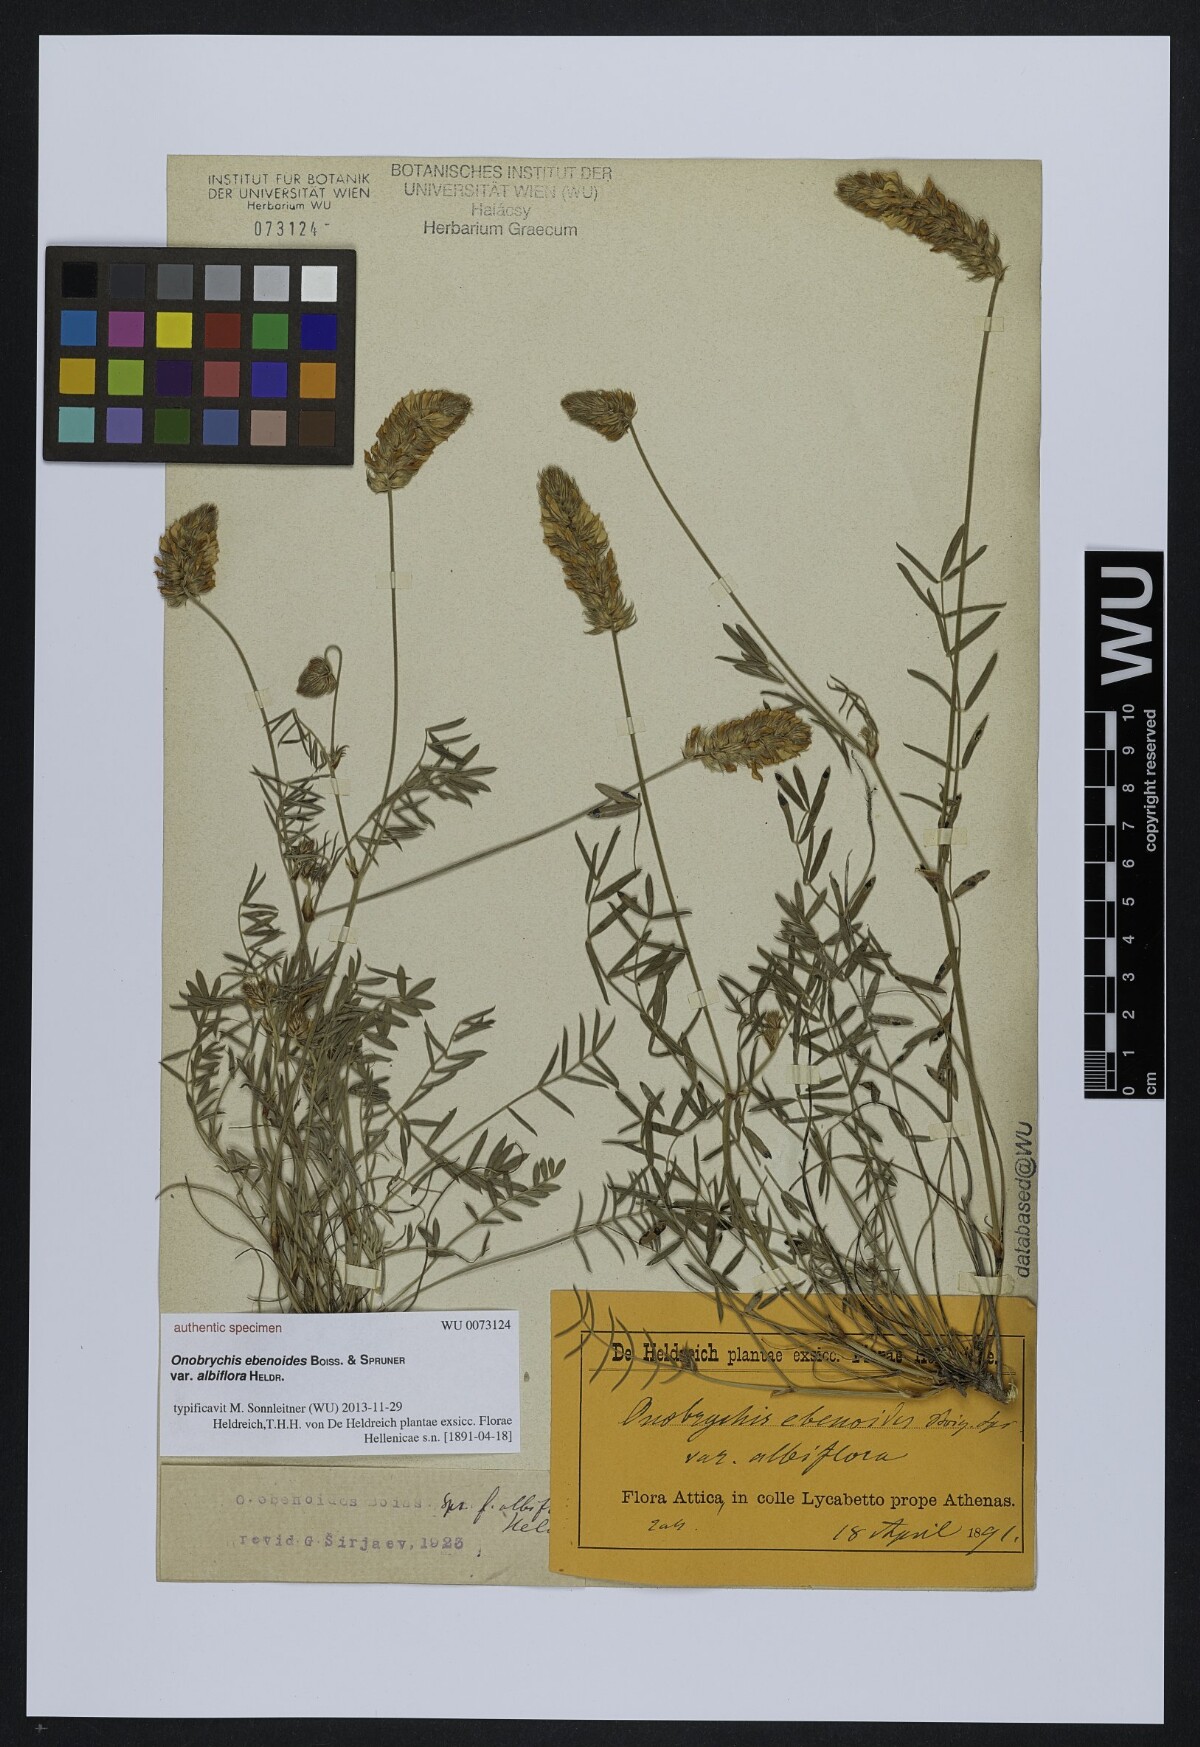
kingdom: Plantae
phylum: Tracheophyta
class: Magnoliopsida
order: Fabales
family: Fabaceae
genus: Onobrychis
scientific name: Onobrychis ebenoides
